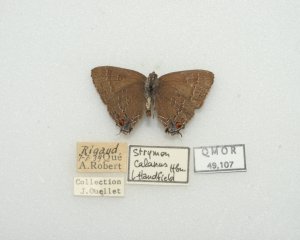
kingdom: Animalia
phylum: Arthropoda
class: Insecta
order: Lepidoptera
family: Lycaenidae
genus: Satyrium
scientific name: Satyrium calanus
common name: Banded Hairstreak
